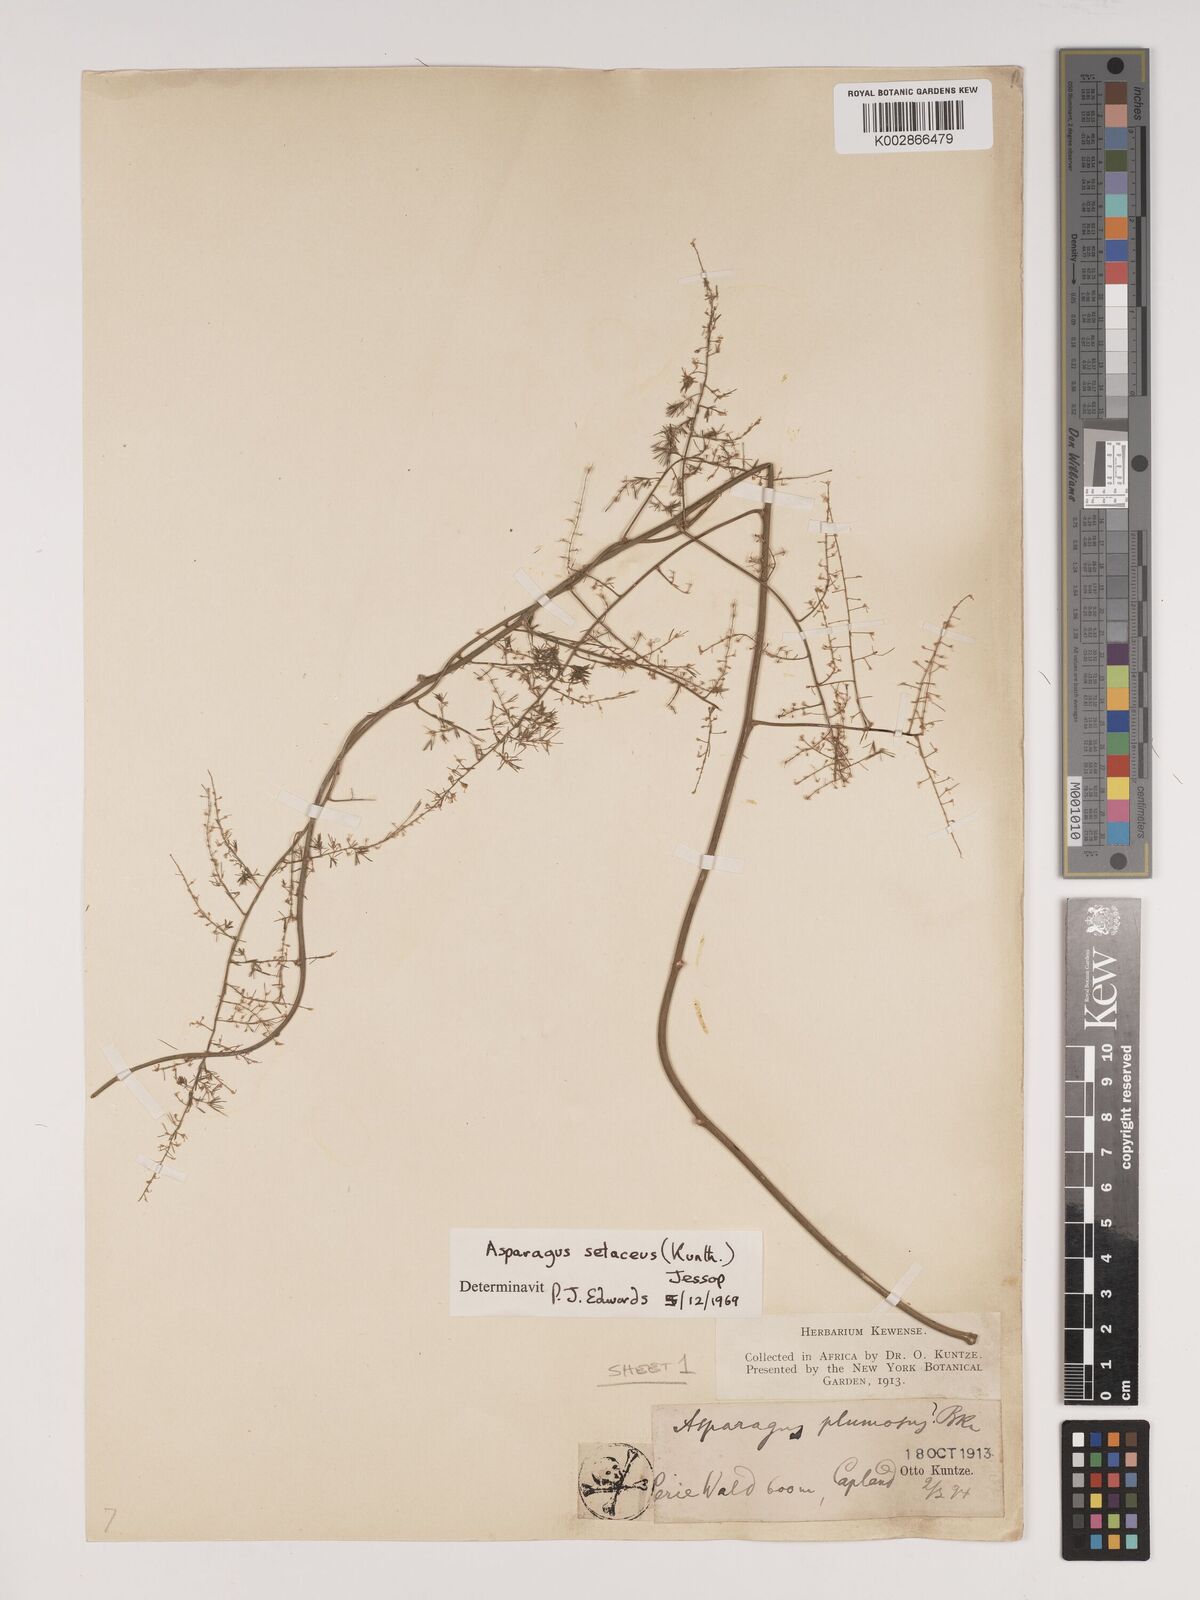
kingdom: Plantae
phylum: Tracheophyta
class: Liliopsida
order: Asparagales
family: Asparagaceae
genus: Asparagus
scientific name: Asparagus setaceus
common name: Common asparagus fern
